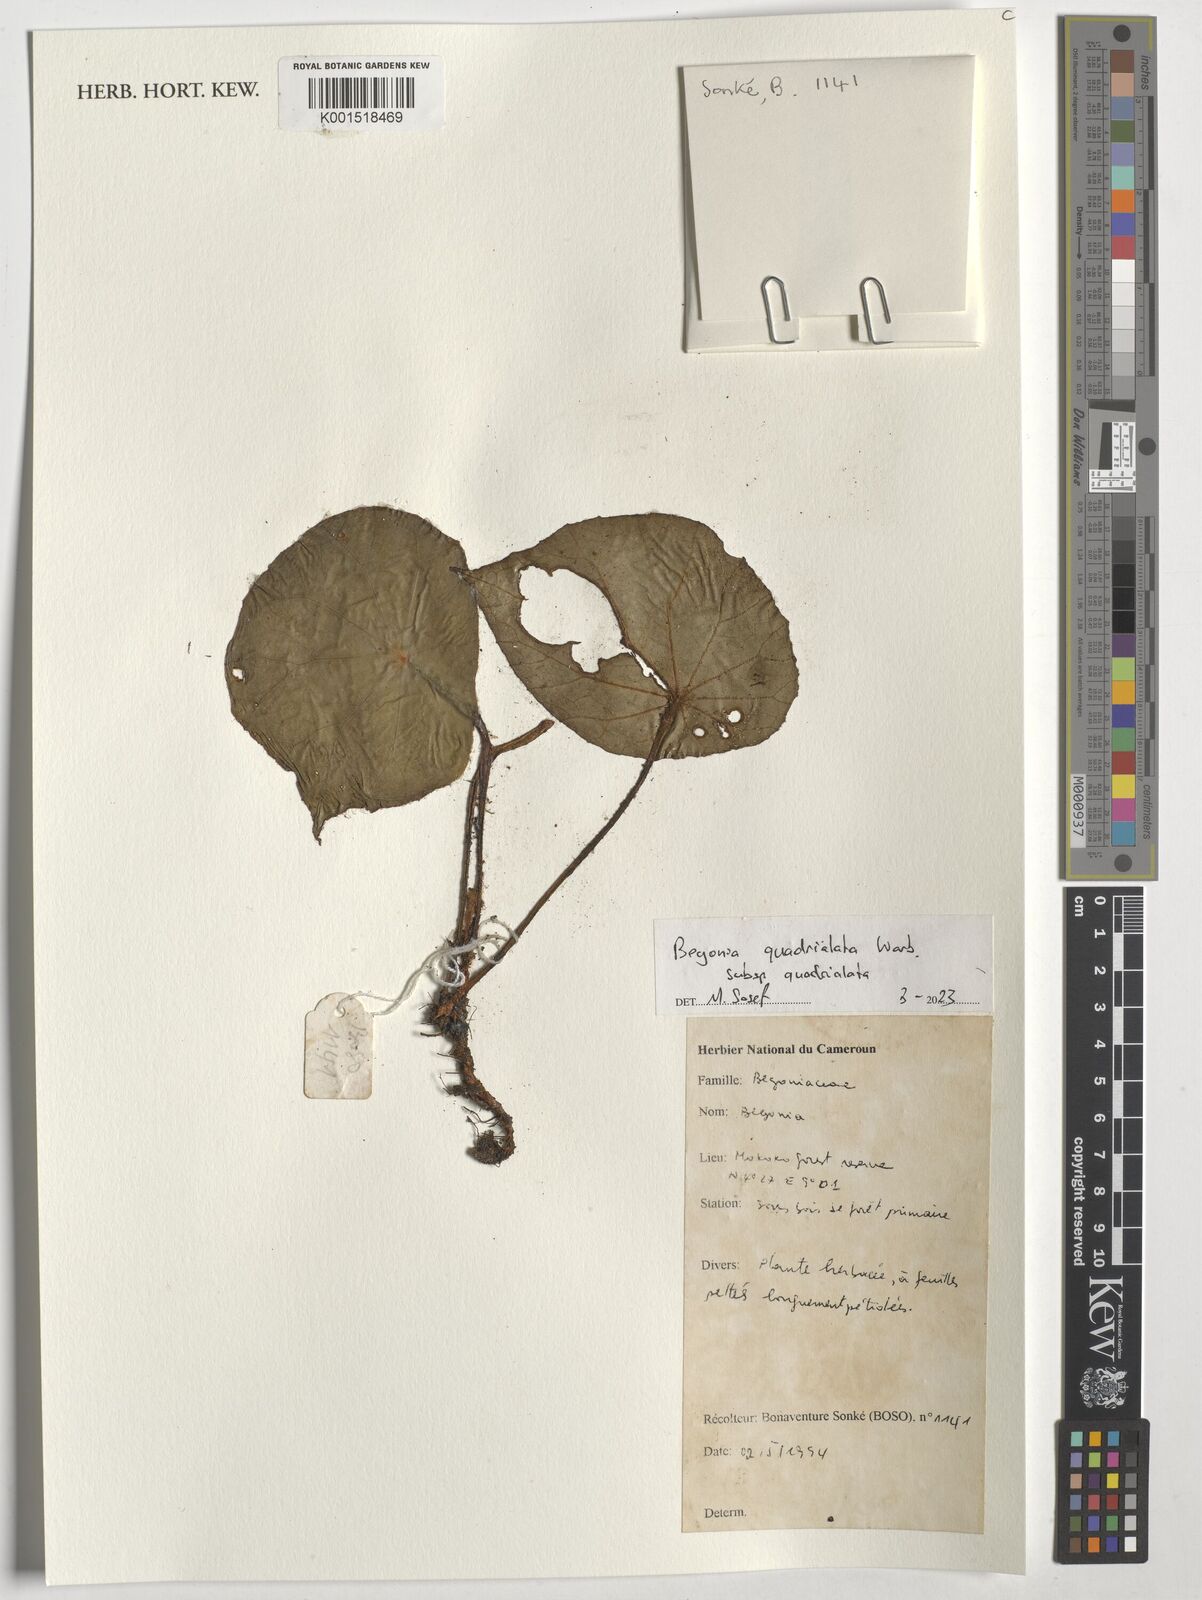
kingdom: Plantae
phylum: Tracheophyta
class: Magnoliopsida
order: Cucurbitales
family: Begoniaceae
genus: Begonia
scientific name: Begonia quadrialata
